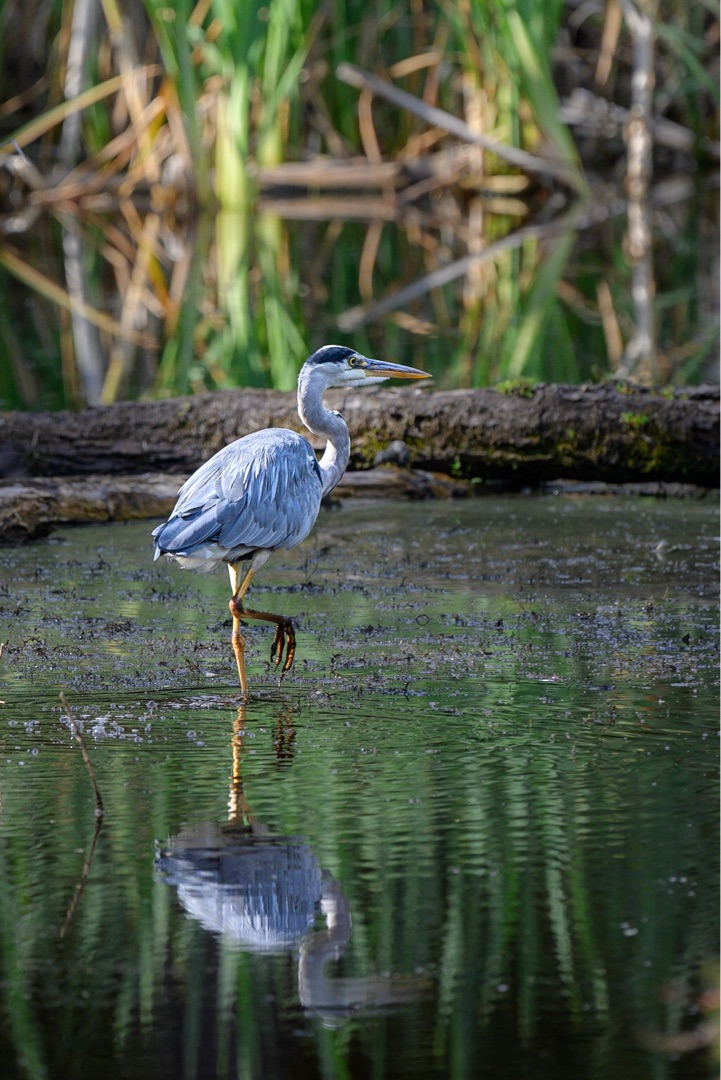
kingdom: Animalia
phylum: Chordata
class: Aves
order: Pelecaniformes
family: Ardeidae
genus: Ardea
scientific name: Ardea cinerea
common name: Fiskehejre
